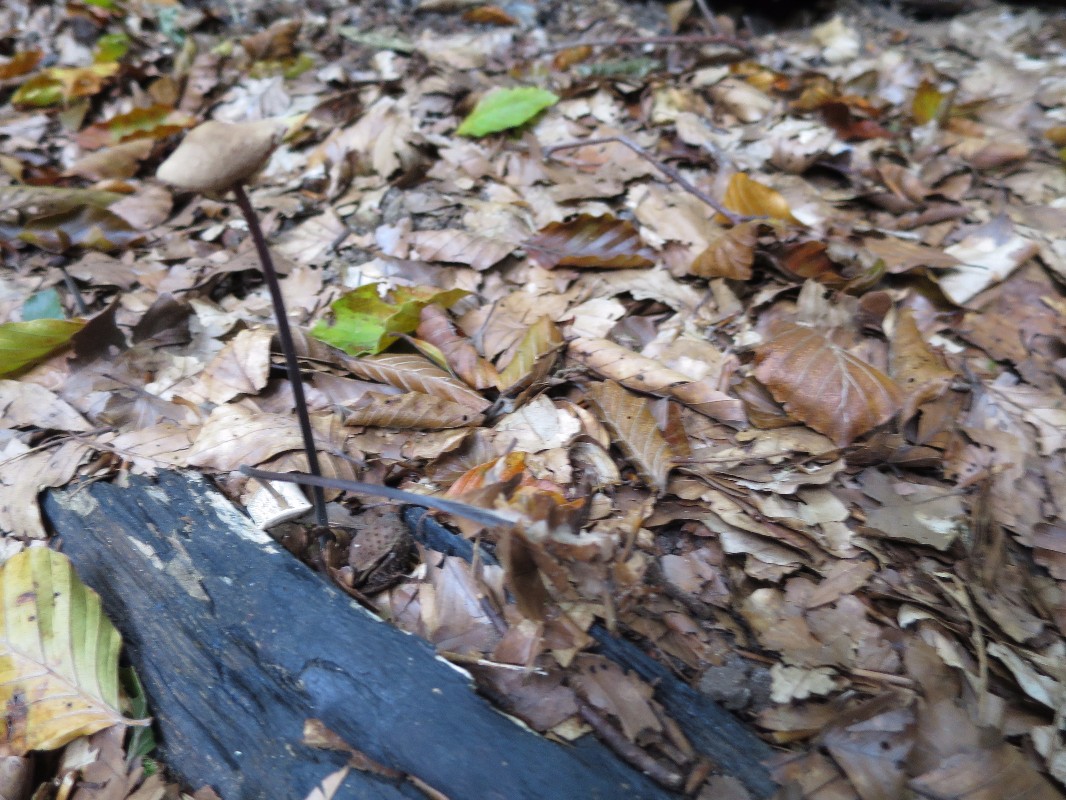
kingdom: Fungi
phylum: Basidiomycota
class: Agaricomycetes
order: Agaricales
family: Omphalotaceae
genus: Mycetinis
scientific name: Mycetinis alliaceus
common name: stor løghat
